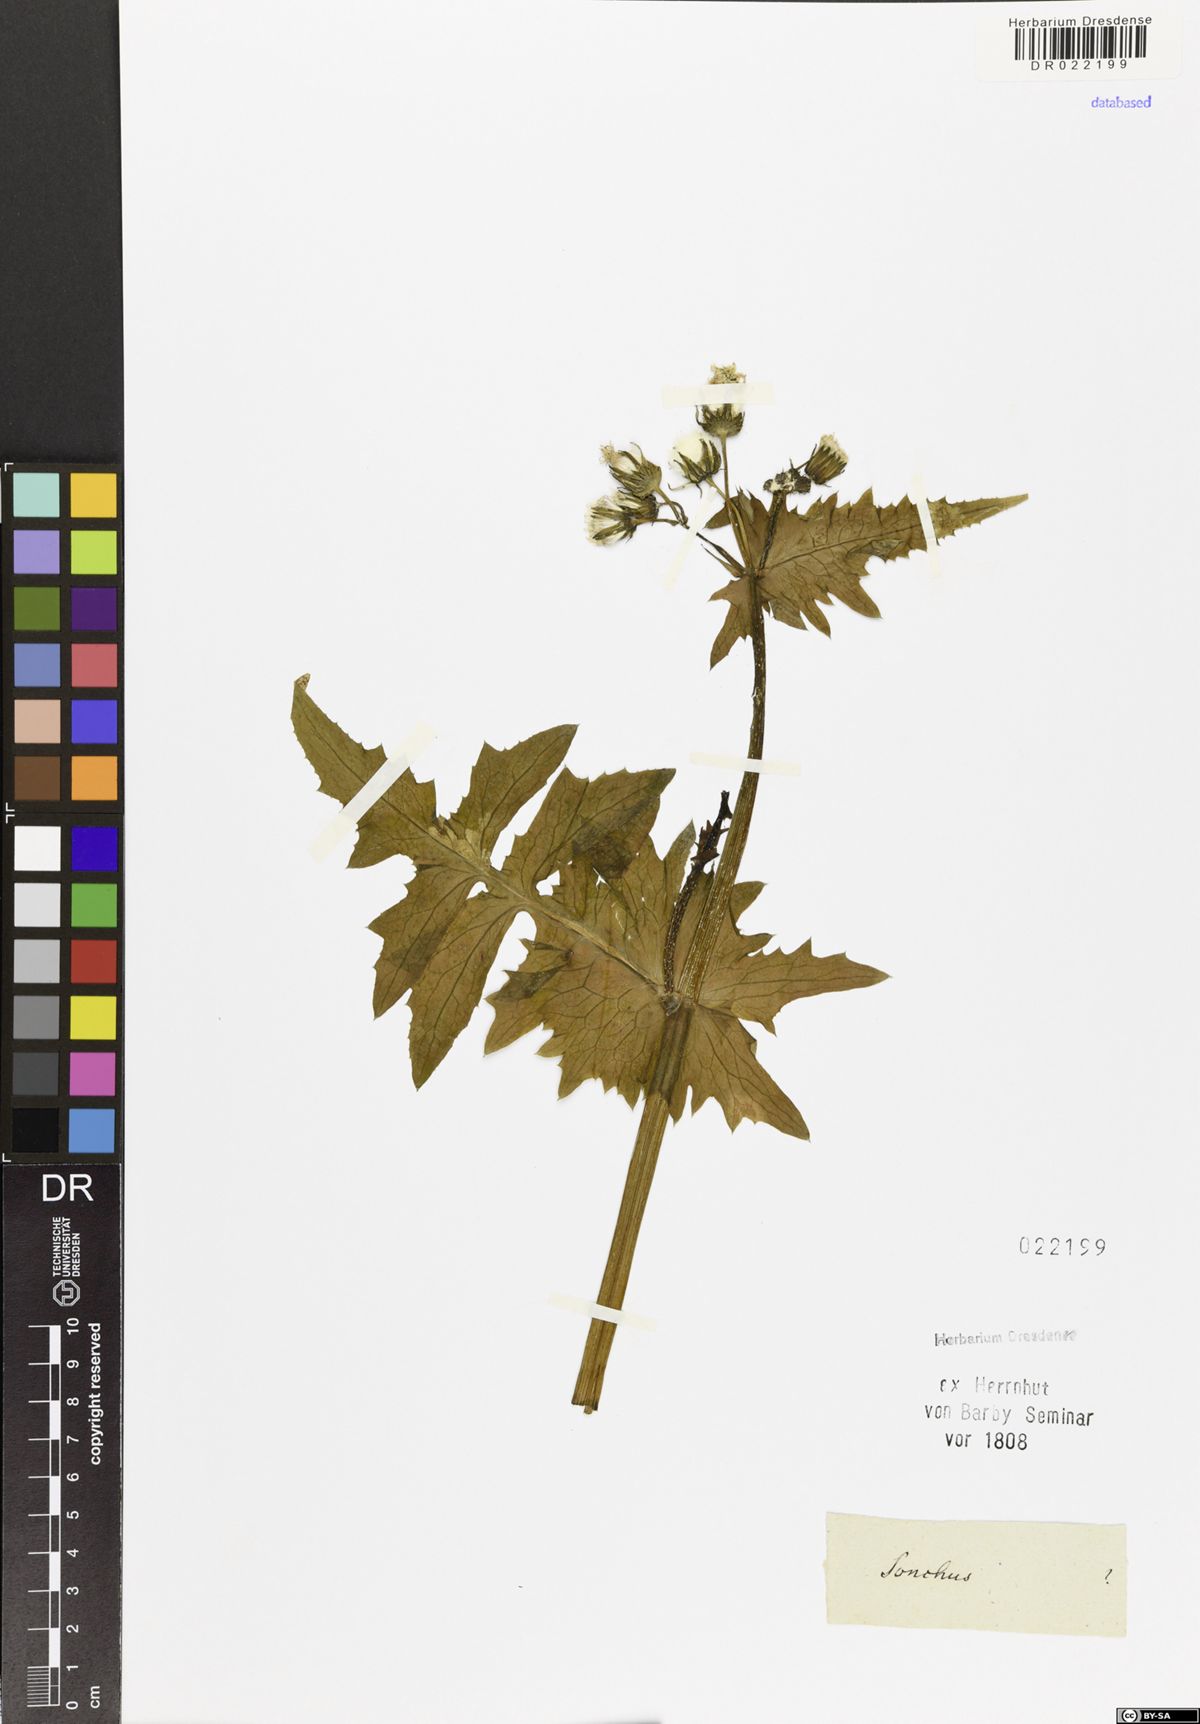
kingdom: Plantae
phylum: Tracheophyta
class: Magnoliopsida
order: Asterales
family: Asteraceae
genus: Sonchus
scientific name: Sonchus oleraceus
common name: Common sowthistle
